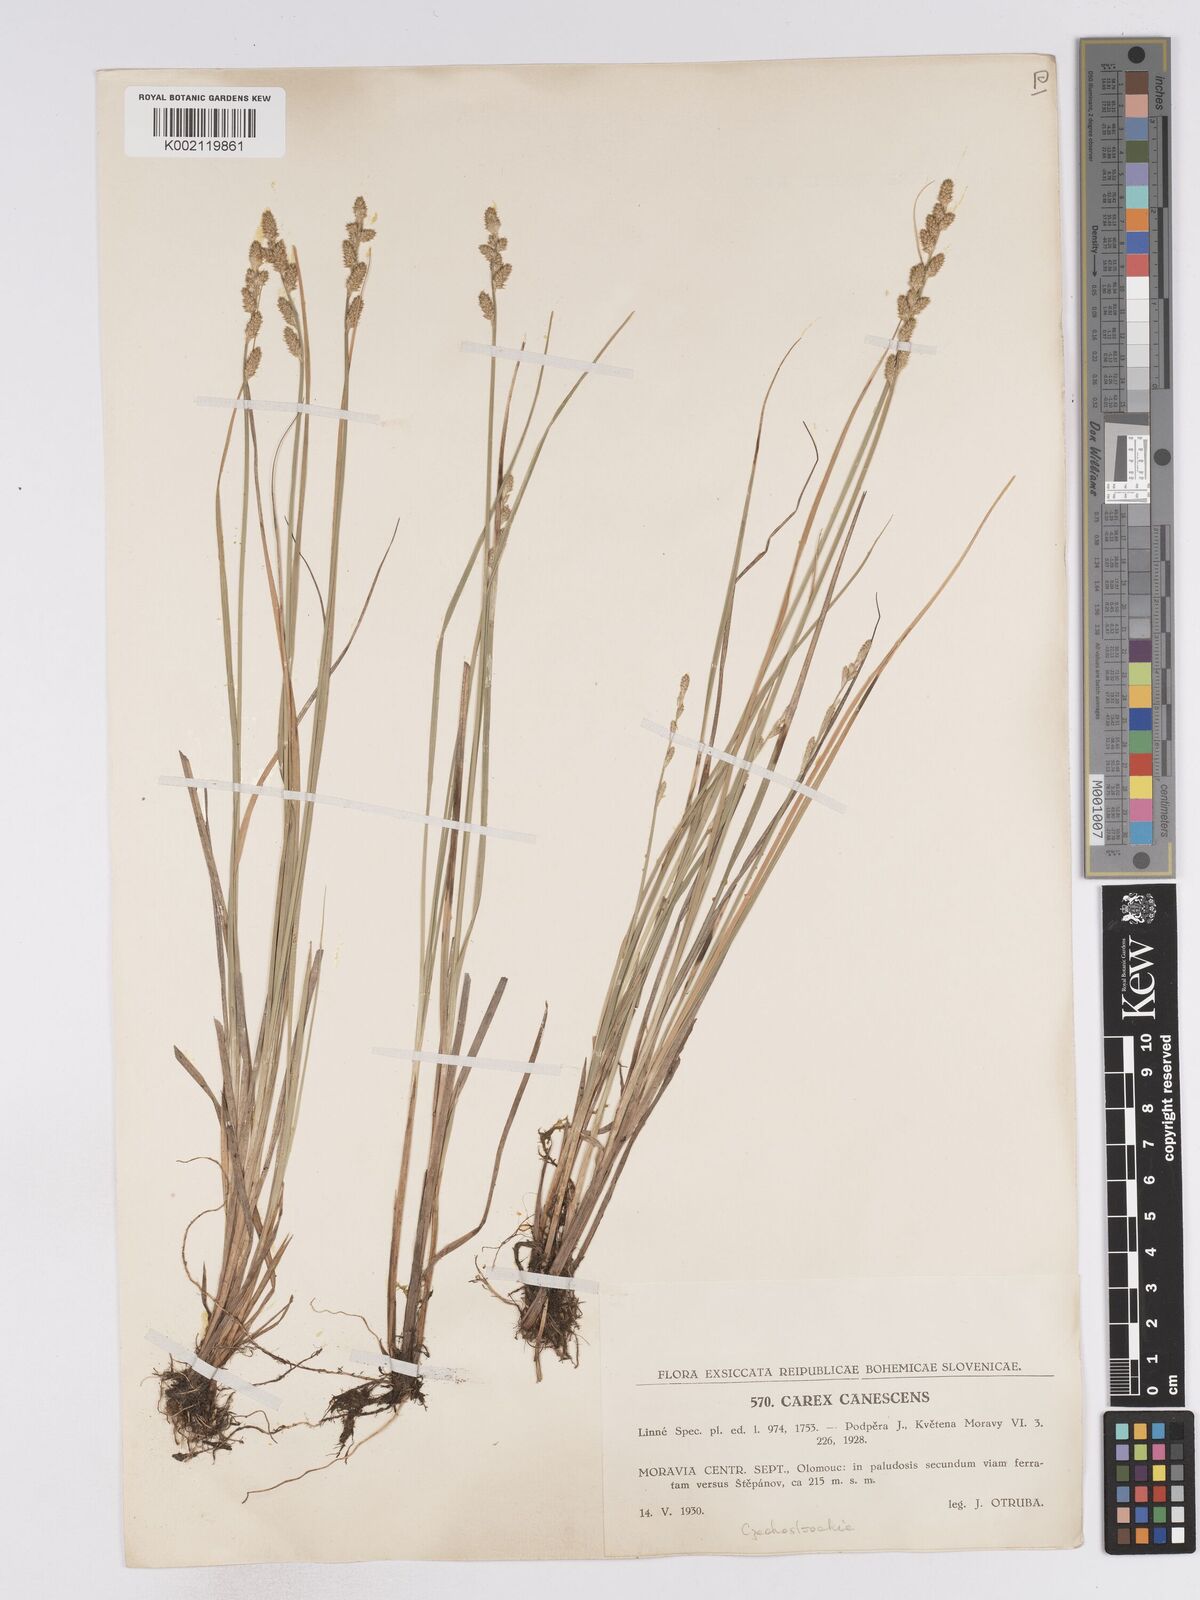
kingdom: Plantae
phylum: Tracheophyta
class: Liliopsida
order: Poales
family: Cyperaceae
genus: Carex
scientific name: Carex curta
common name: White sedge
